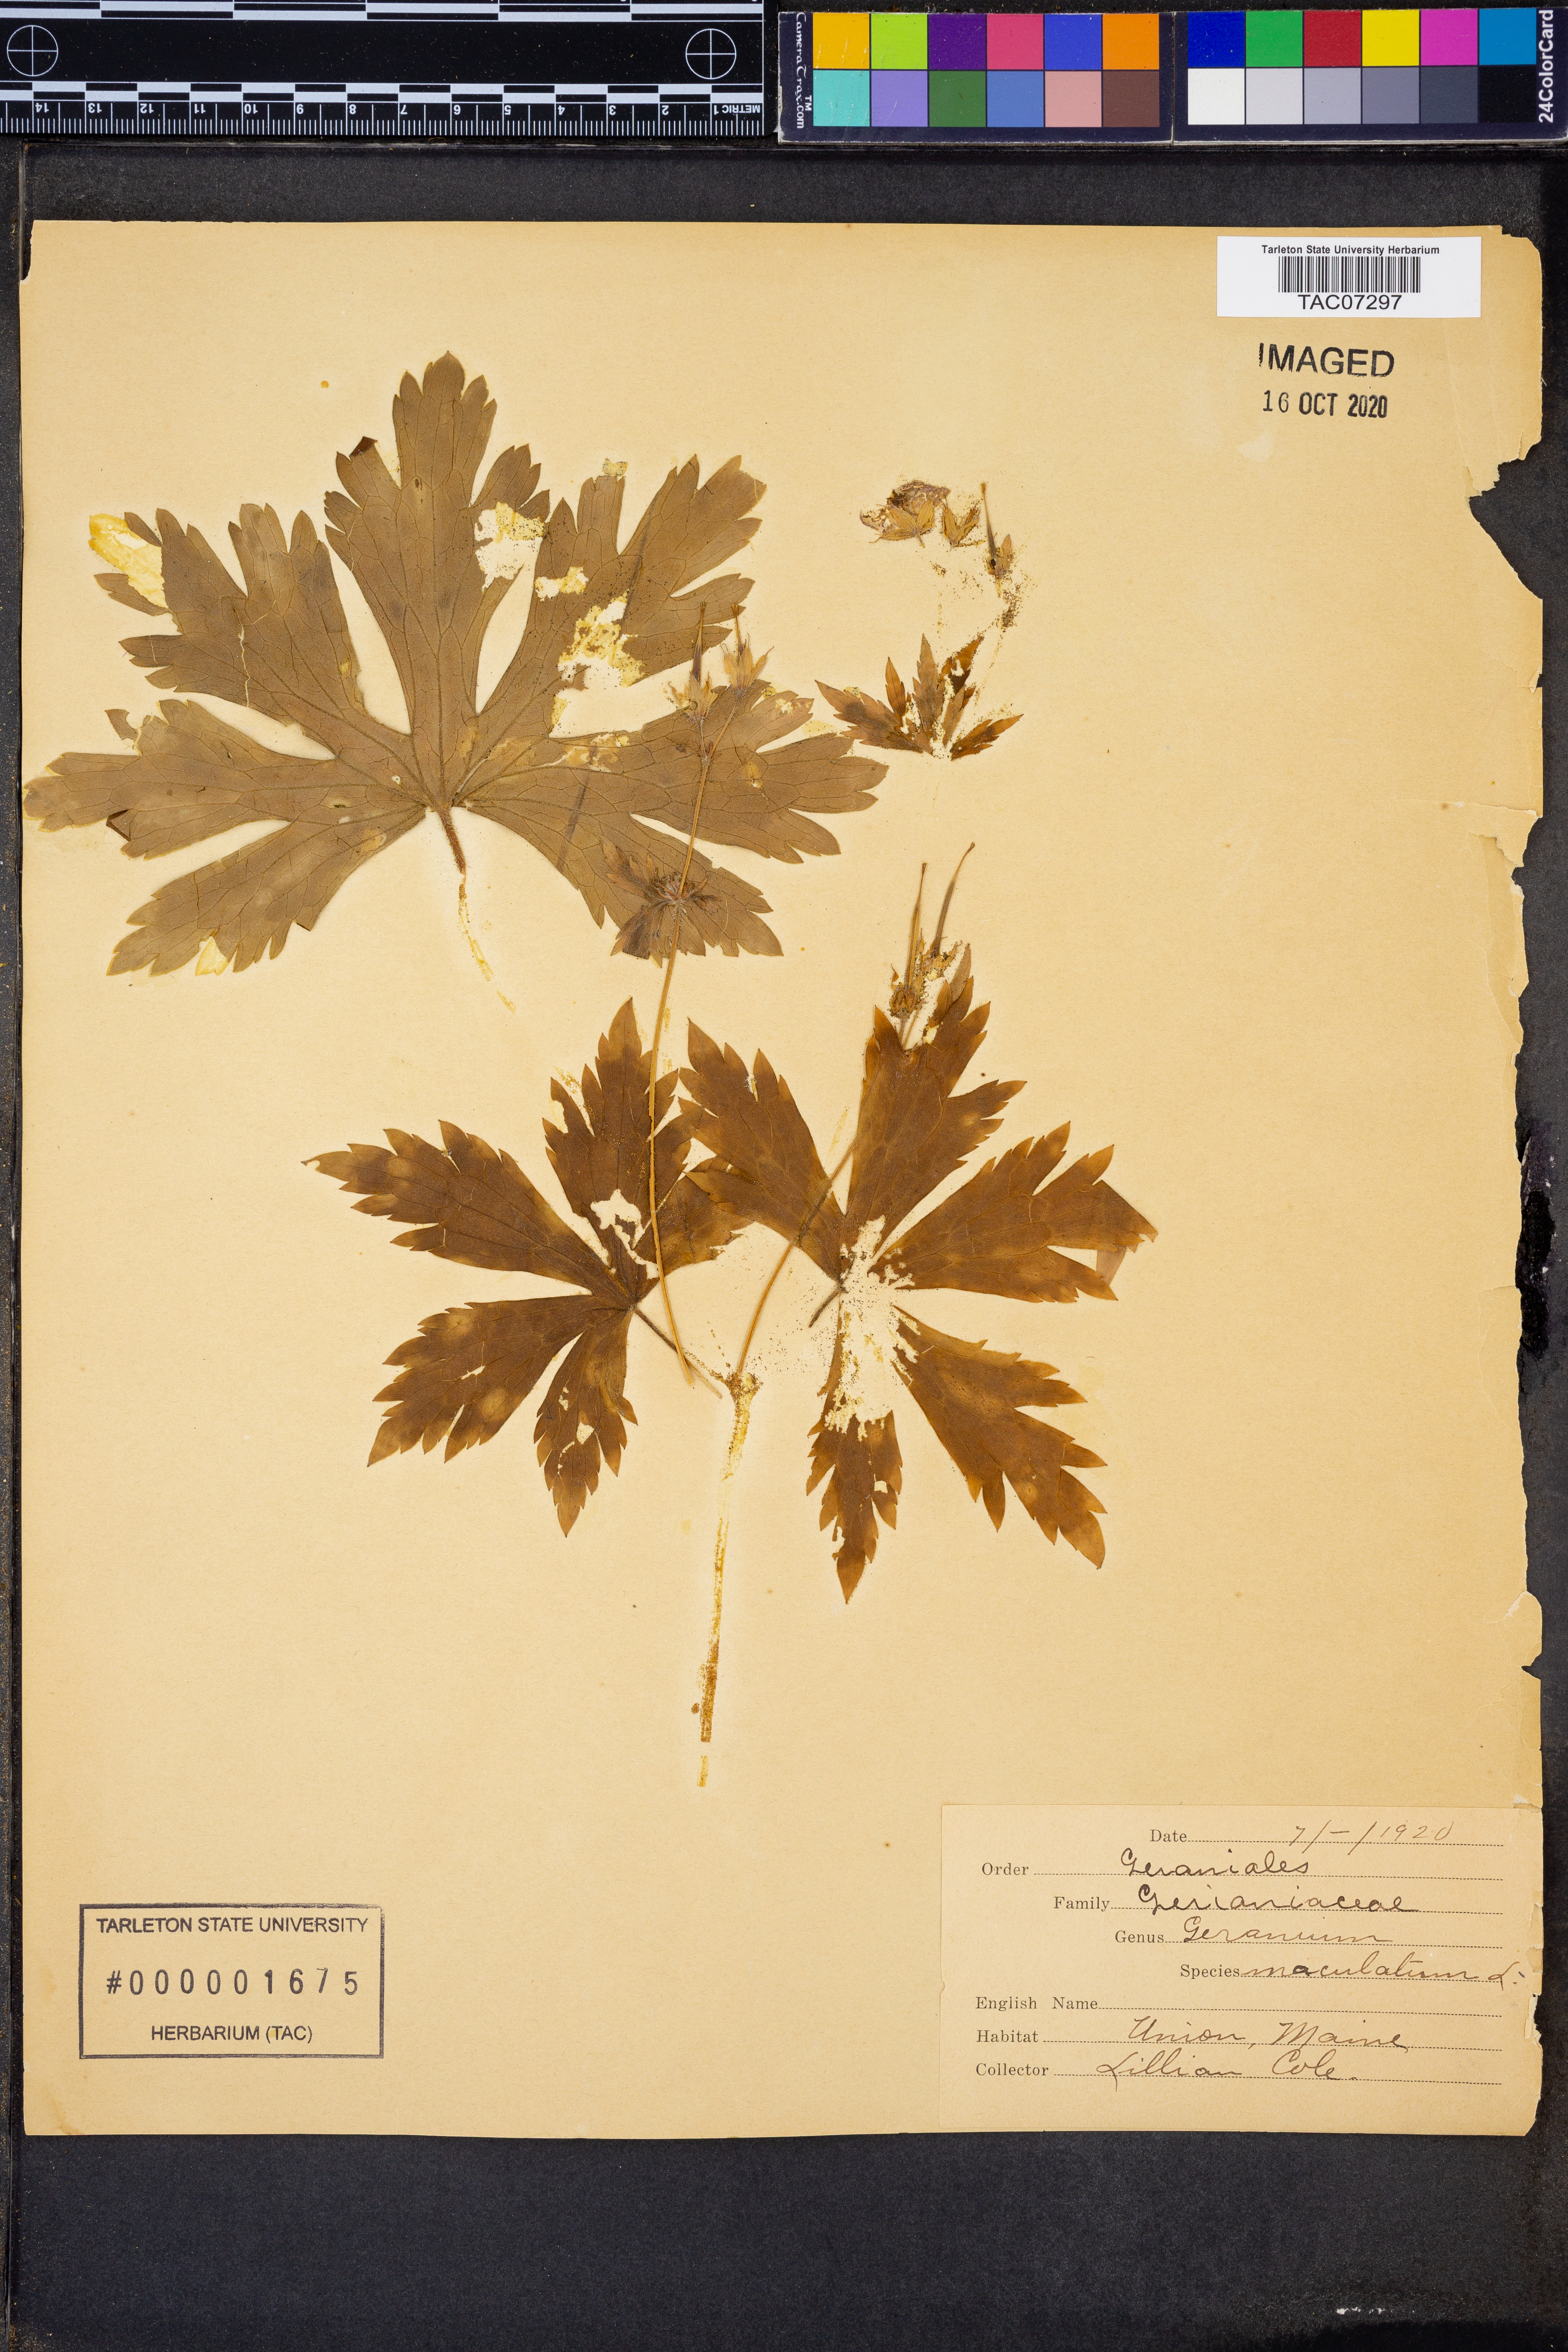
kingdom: Plantae
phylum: Tracheophyta
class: Magnoliopsida
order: Geraniales
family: Geraniaceae
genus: Geranium
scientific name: Geranium maculatum
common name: Spotted geranium
